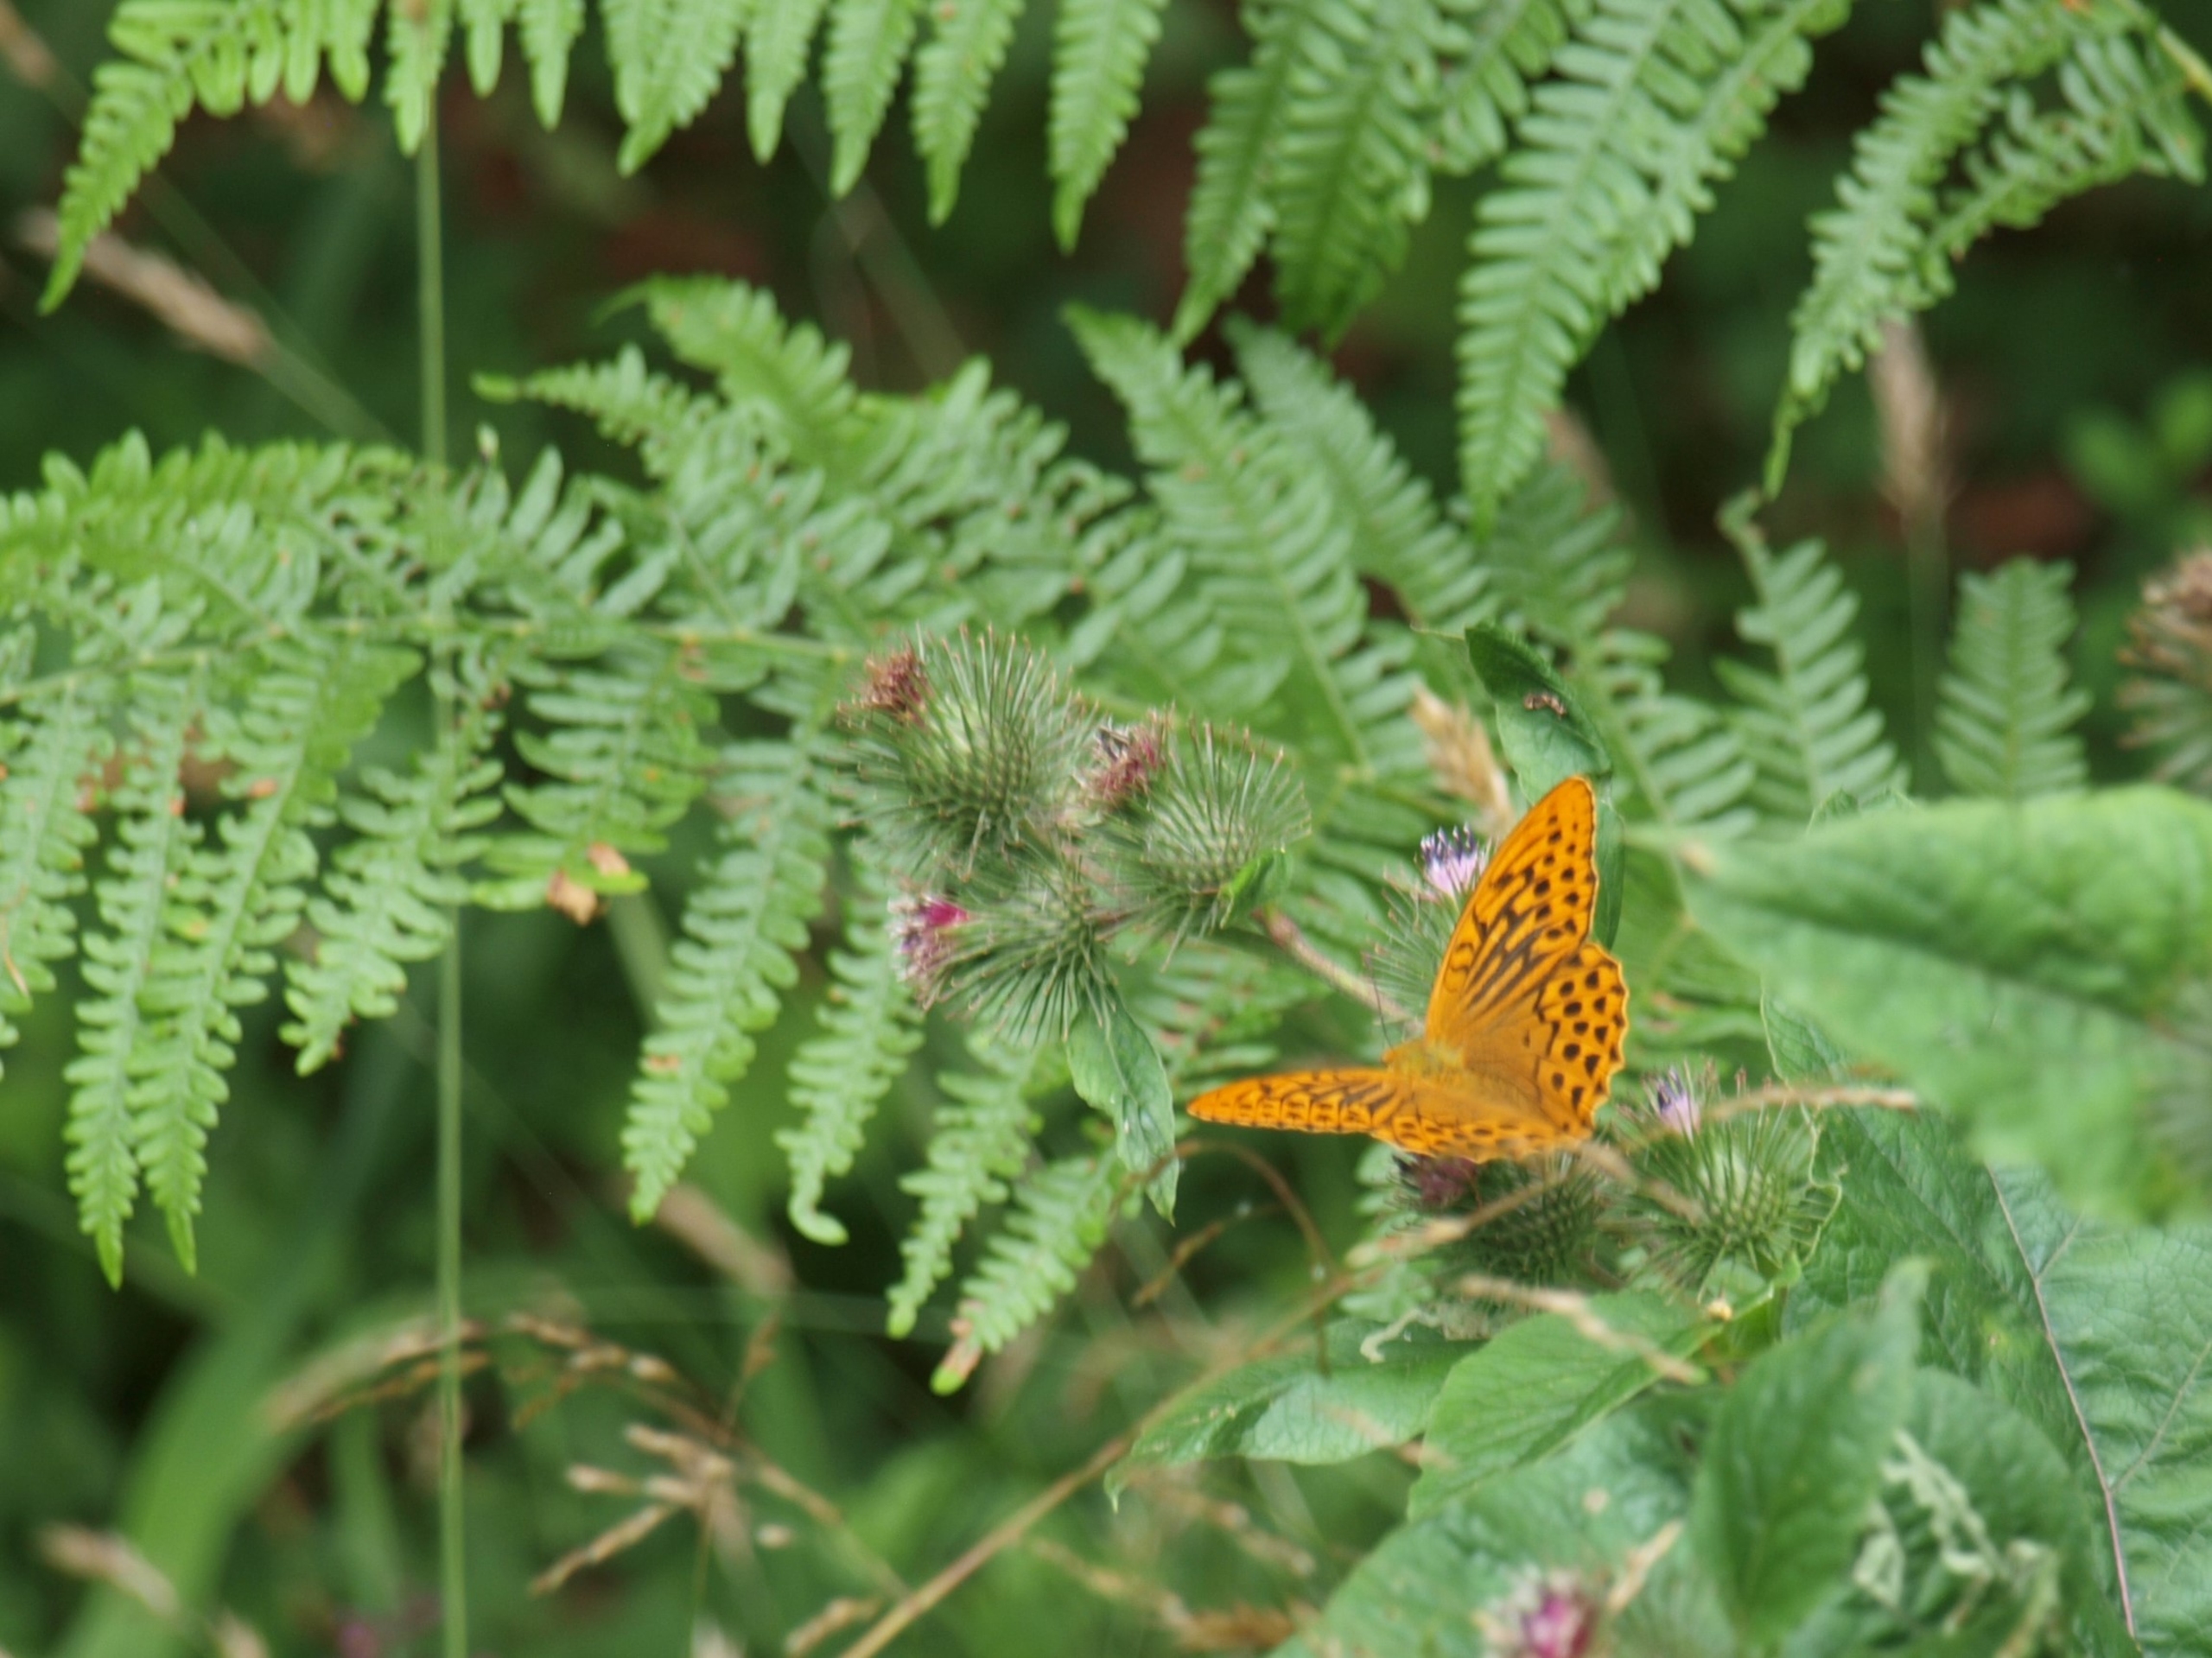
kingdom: Animalia
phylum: Arthropoda
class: Insecta
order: Lepidoptera
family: Nymphalidae
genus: Argynnis
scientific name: Argynnis paphia
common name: Kejserkåbe
